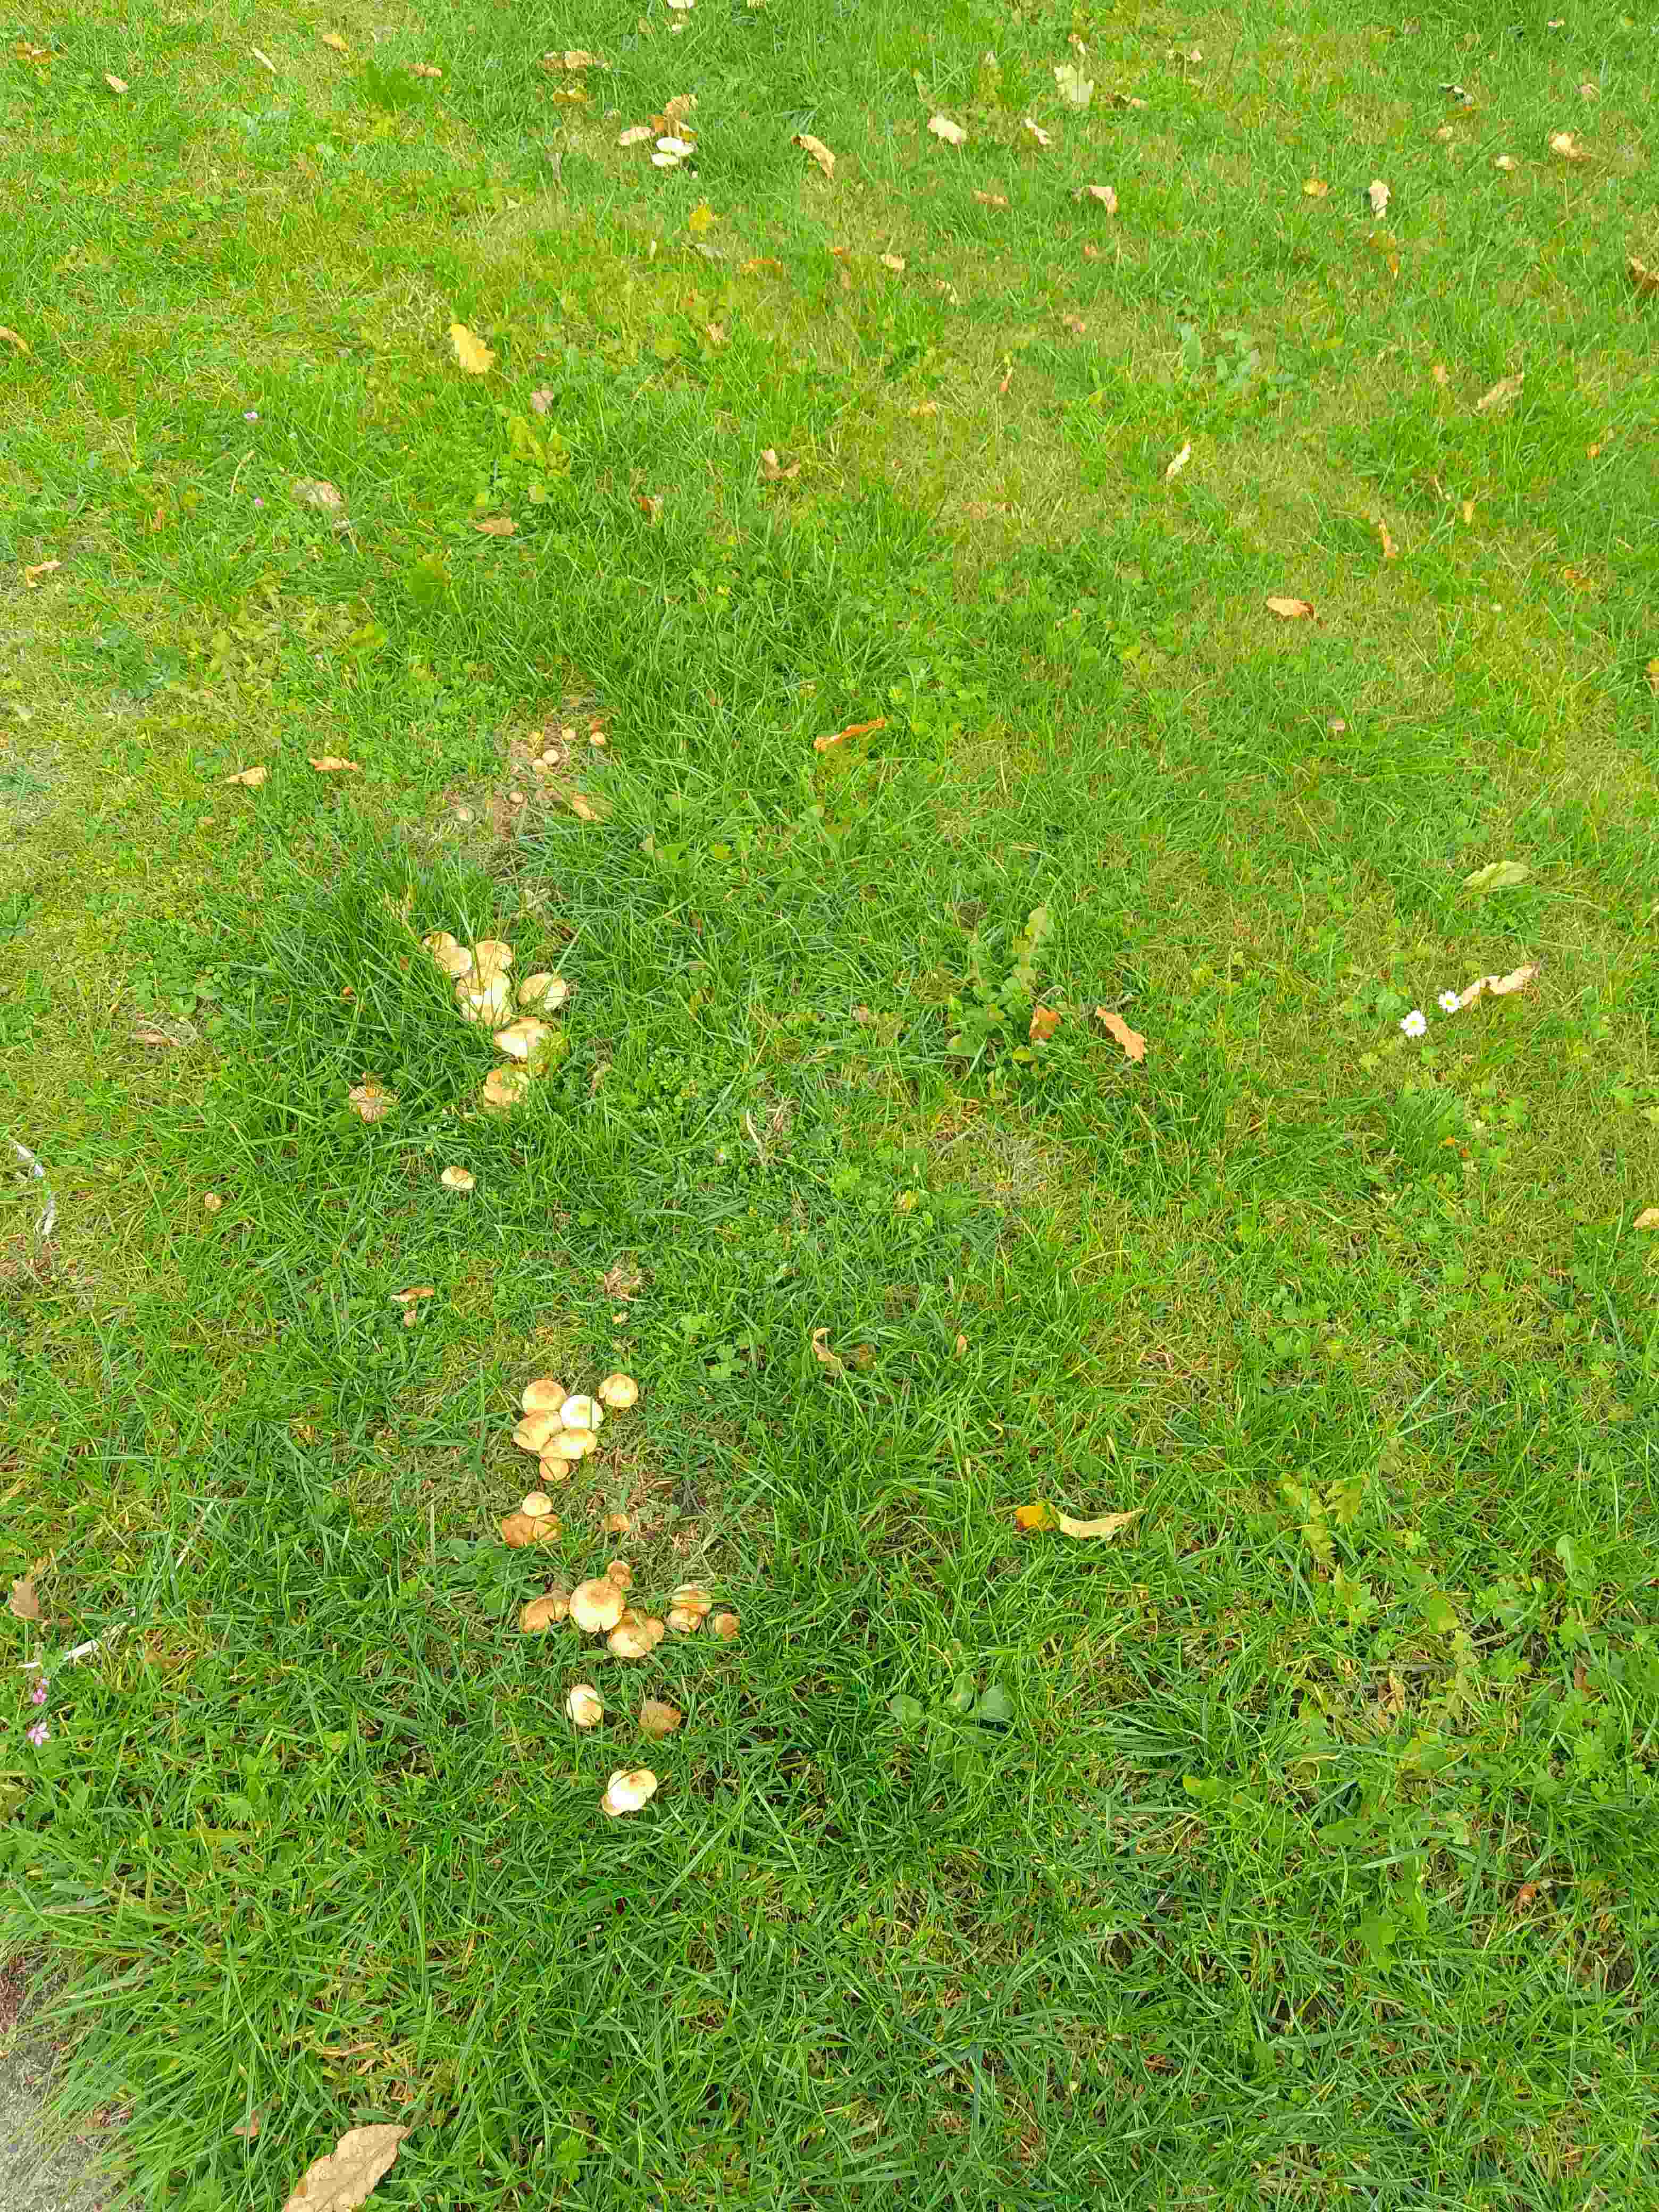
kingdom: Fungi
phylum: Basidiomycota
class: Agaricomycetes
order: Agaricales
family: Marasmiaceae
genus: Marasmius
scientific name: Marasmius oreades
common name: elledans-bruskhat
